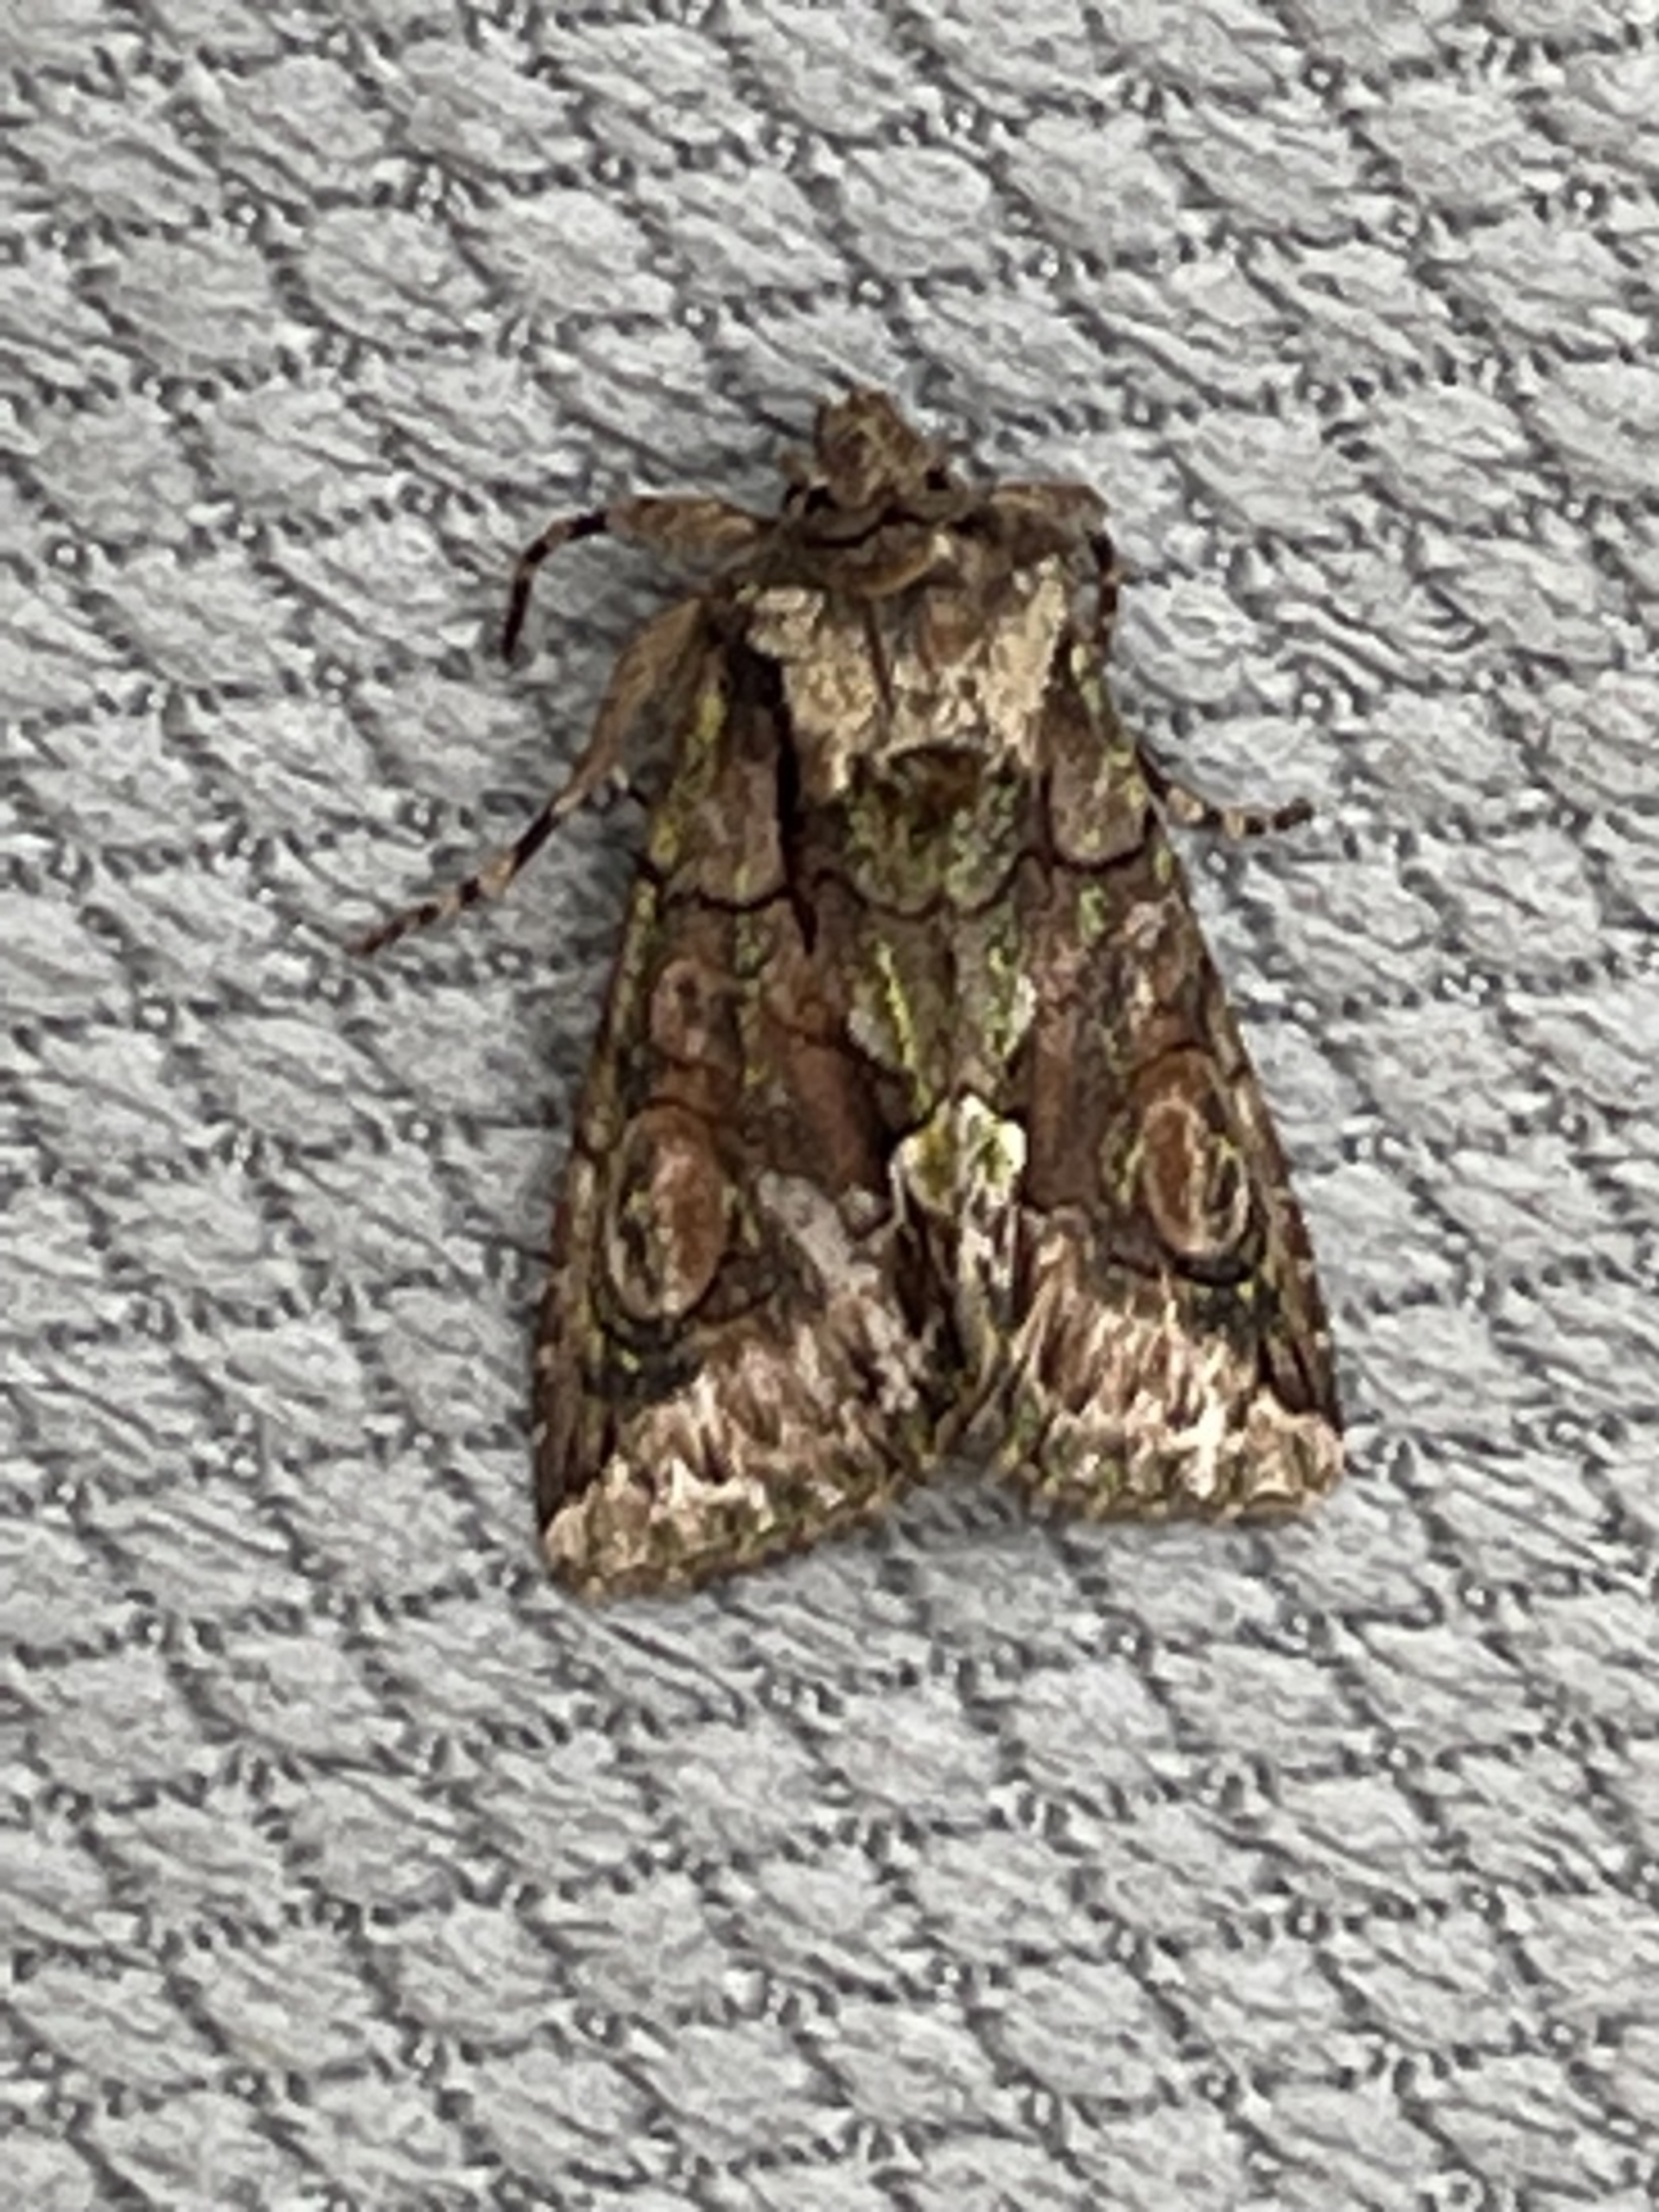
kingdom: Animalia
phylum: Arthropoda
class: Insecta
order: Lepidoptera
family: Noctuidae
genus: Allophyes
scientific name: Allophyes oxyacanthae
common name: Tjørneugle
